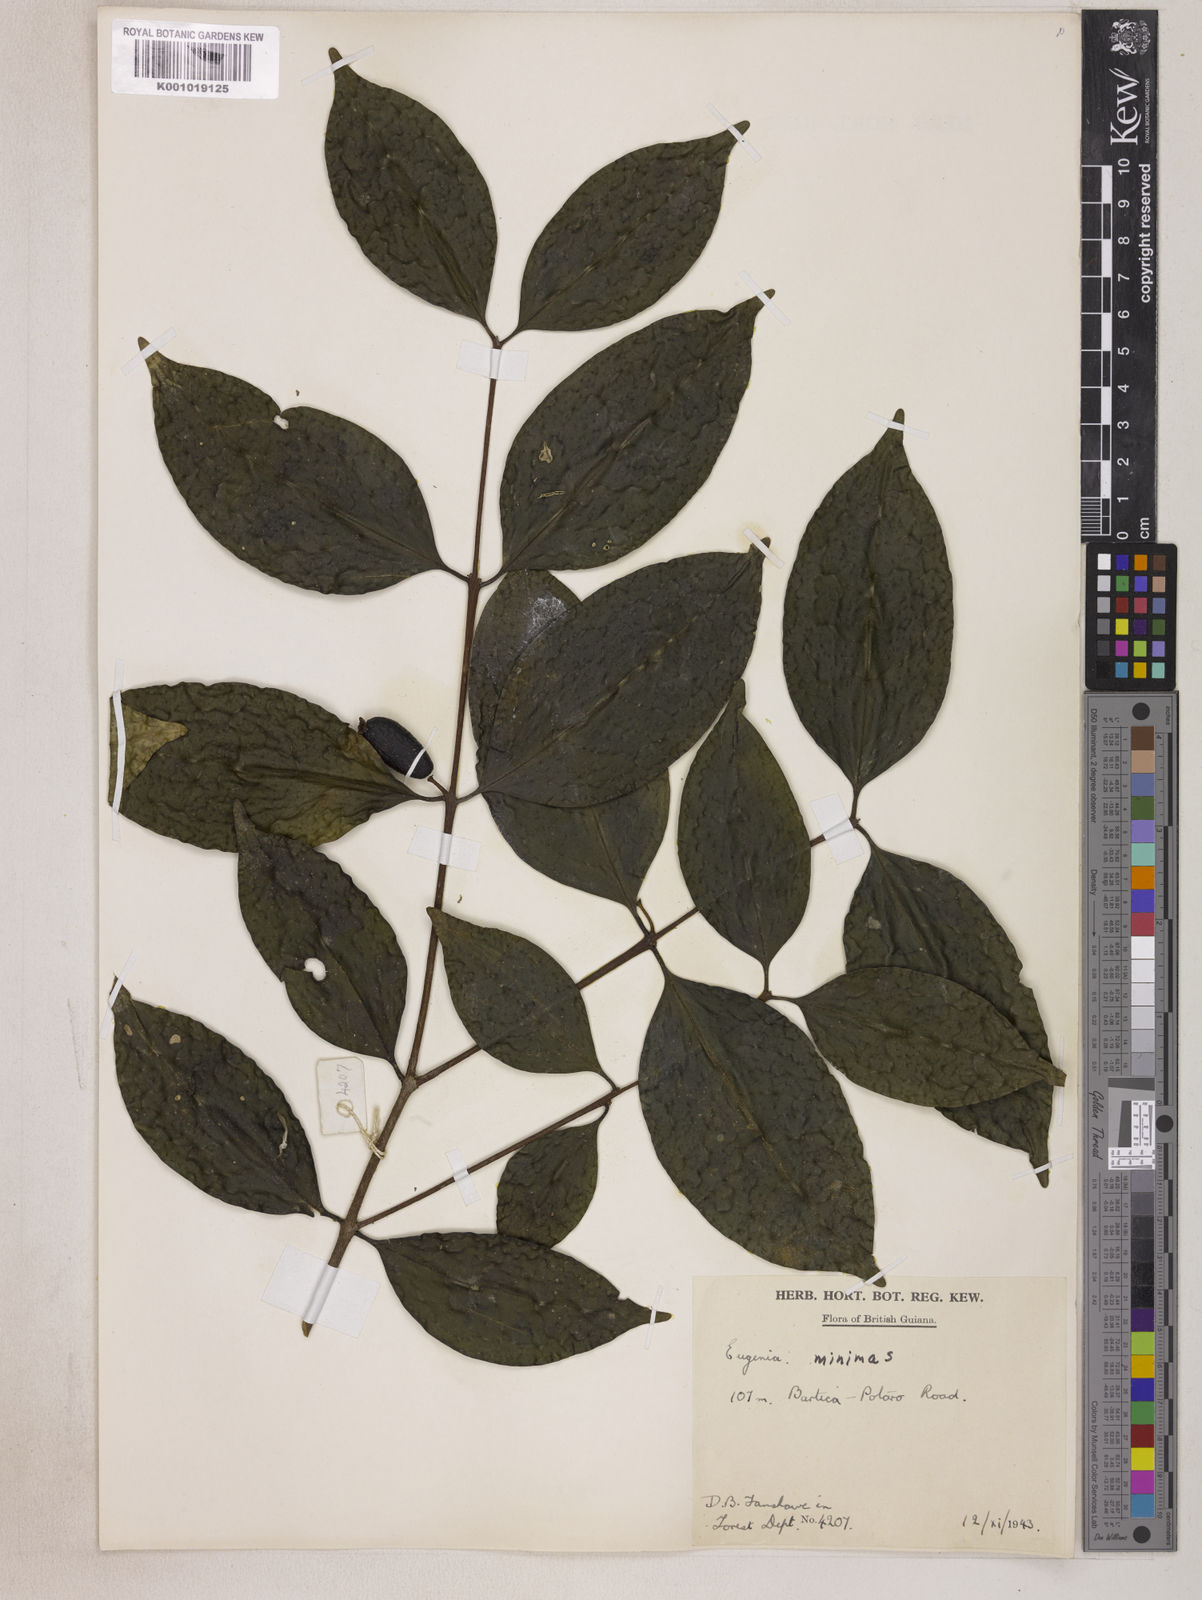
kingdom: Plantae
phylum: Tracheophyta
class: Magnoliopsida
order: Myrtales
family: Myrtaceae
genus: Eugenia
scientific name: Eugenia mimus
